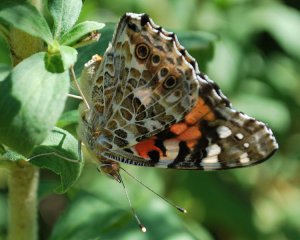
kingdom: Animalia
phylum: Arthropoda
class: Insecta
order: Lepidoptera
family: Nymphalidae
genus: Vanessa
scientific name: Vanessa cardui
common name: Painted Lady
